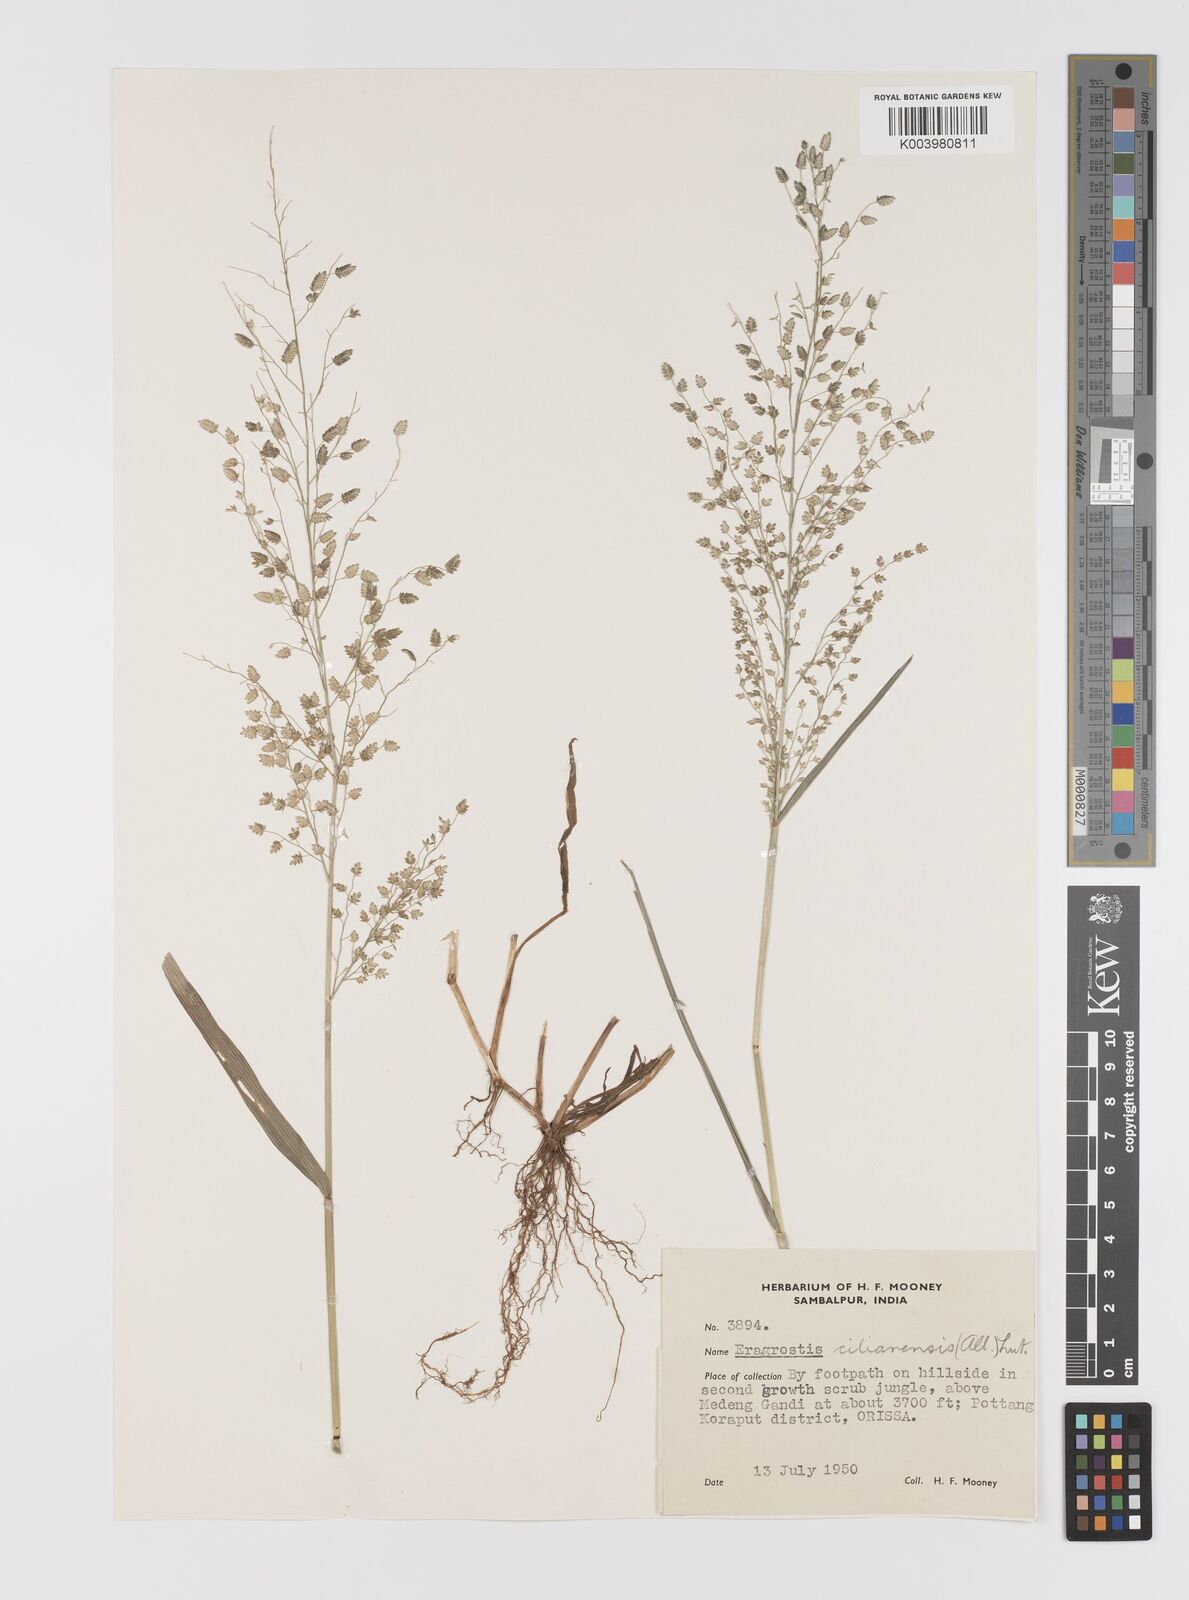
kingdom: Plantae
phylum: Tracheophyta
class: Liliopsida
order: Poales
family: Poaceae
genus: Eragrostis
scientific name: Eragrostis cilianensis
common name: Stinkgrass
